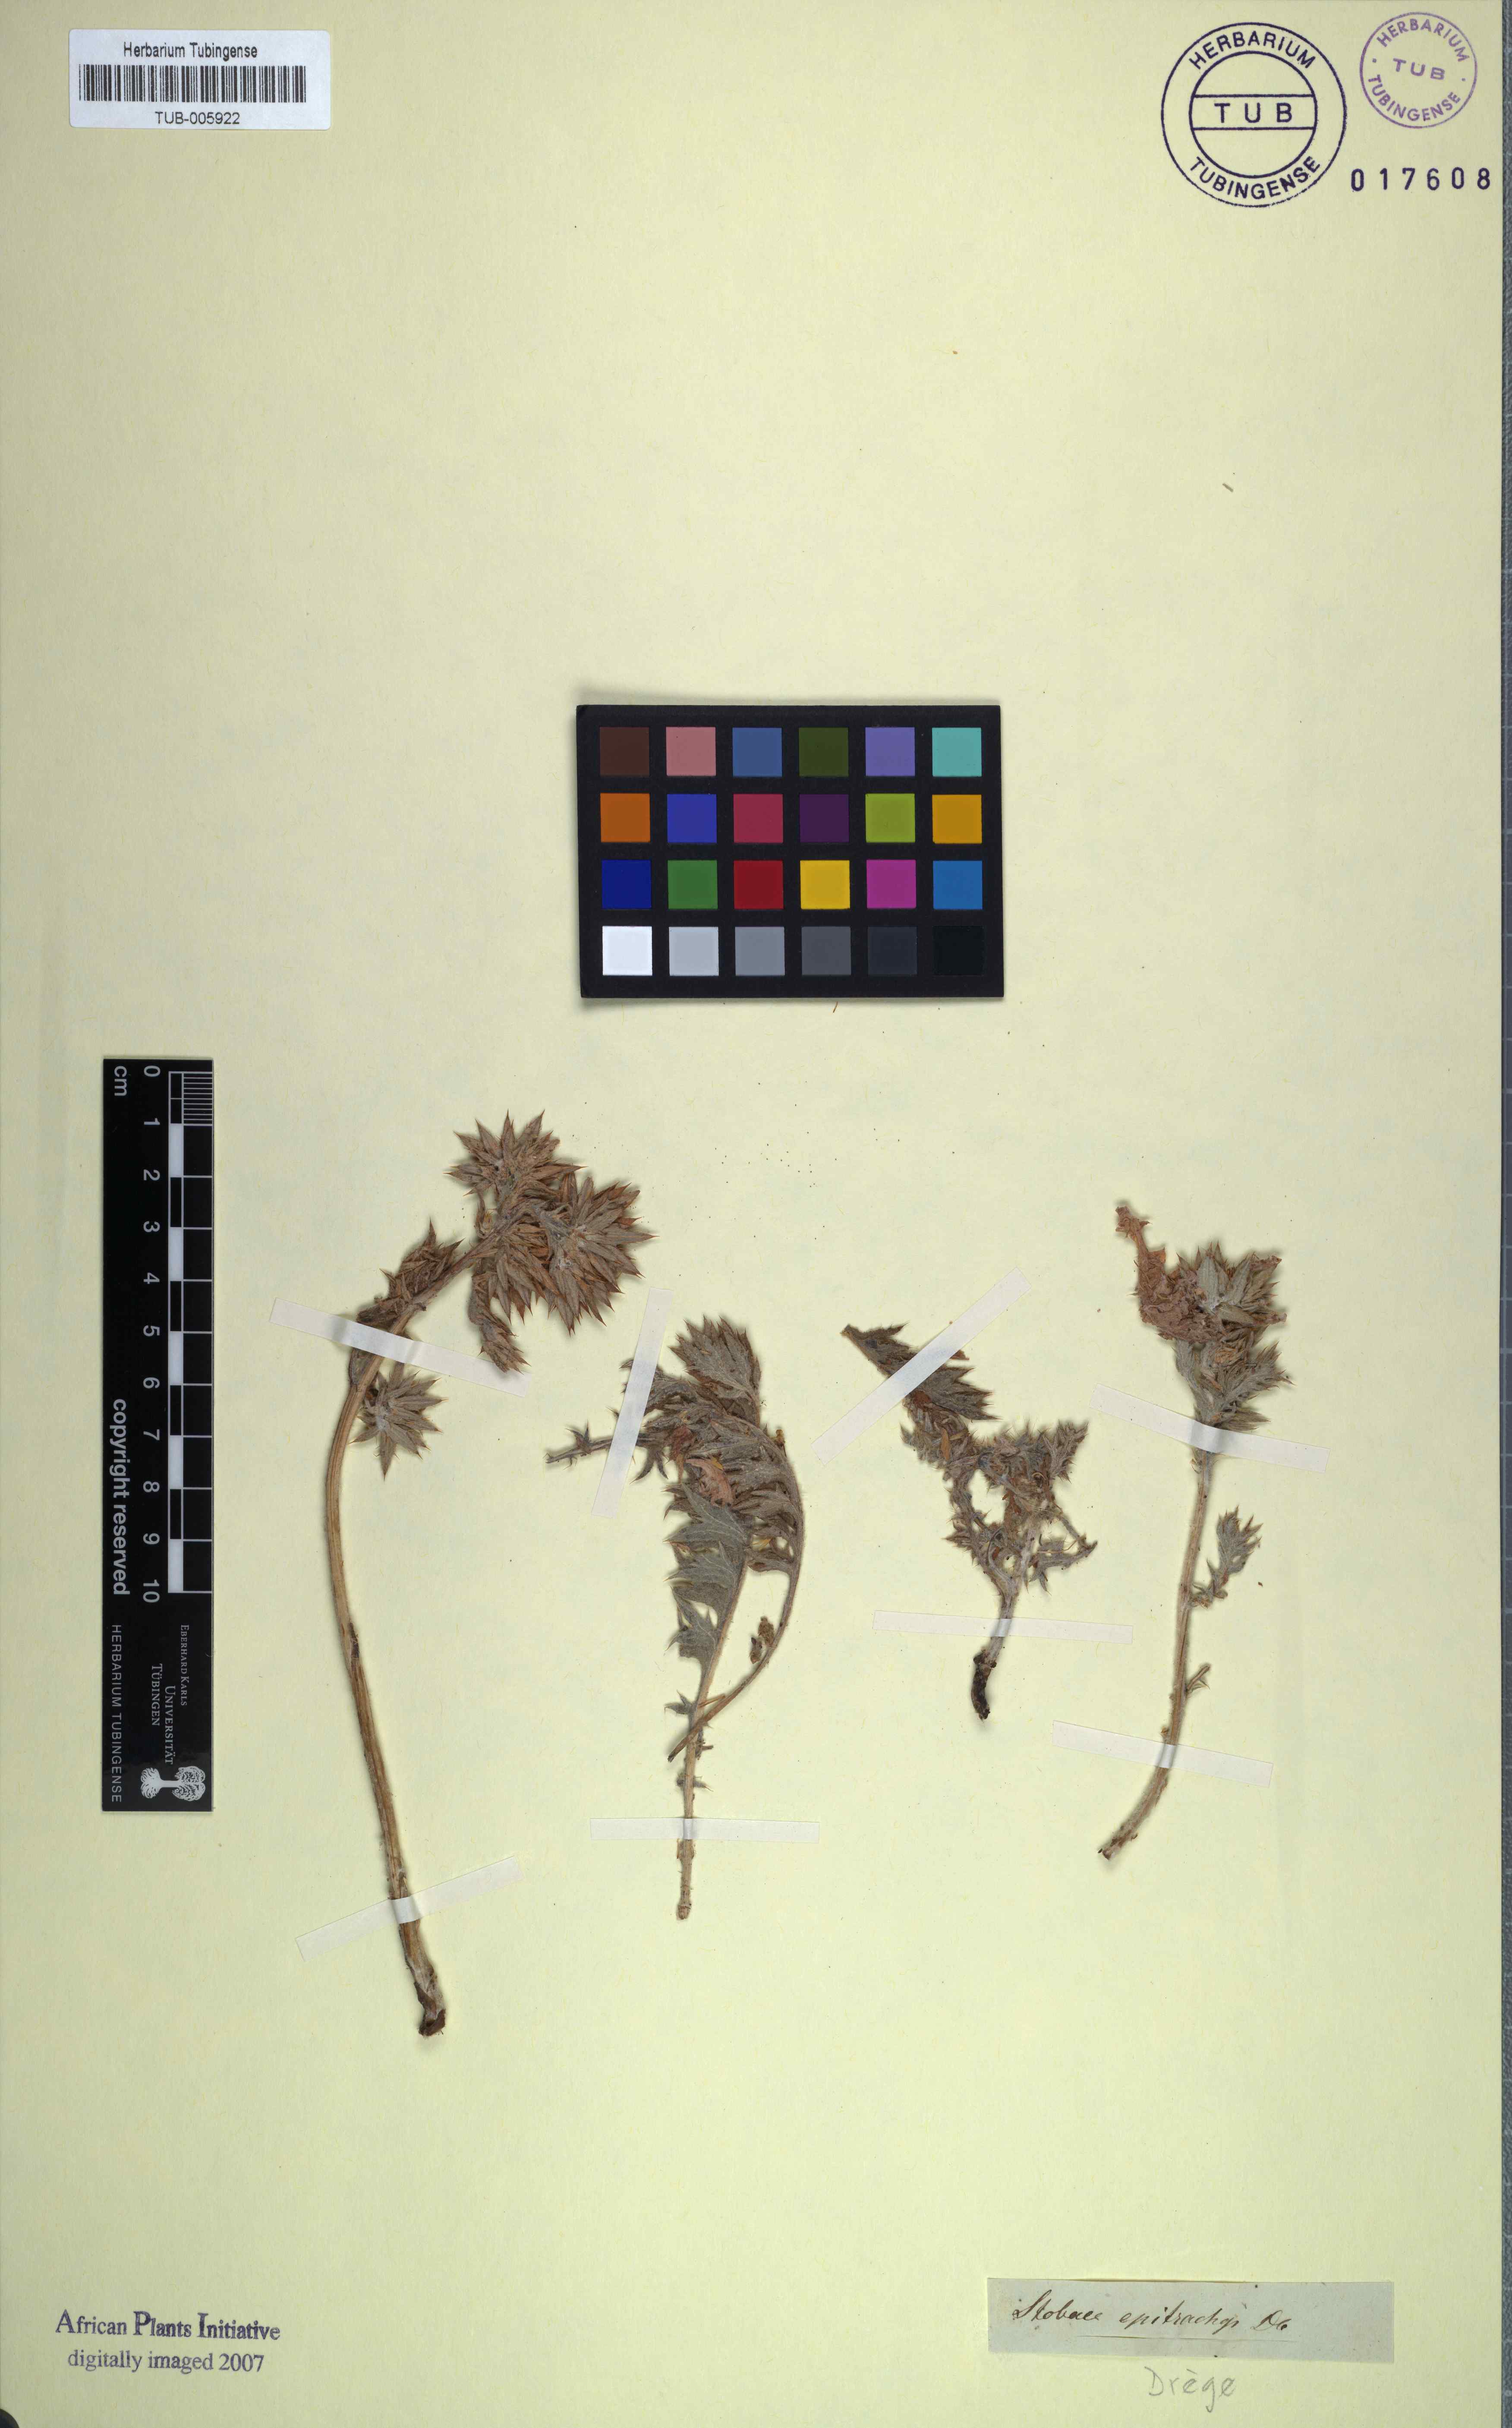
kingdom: Plantae
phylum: Tracheophyta
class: Magnoliopsida
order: Asterales
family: Asteraceae
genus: Berkheya
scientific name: Berkheya pinnatifida
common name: Lobed african thistle
